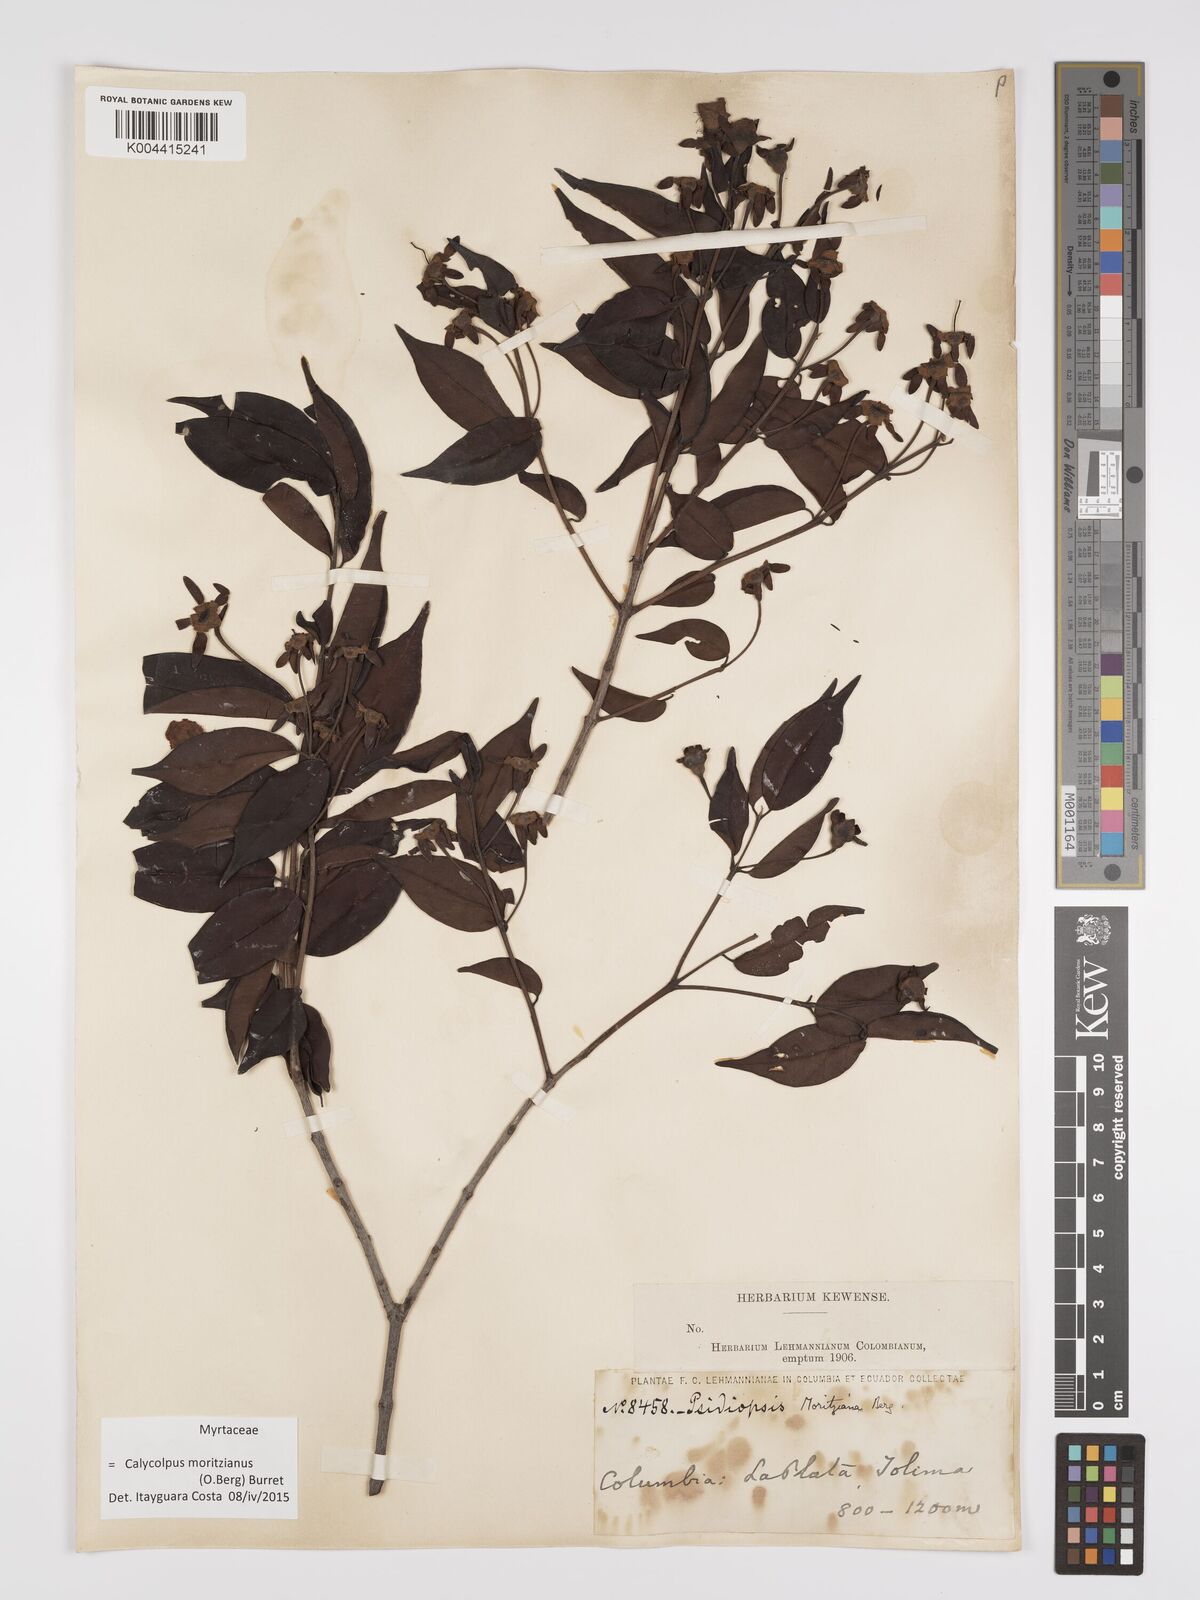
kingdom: Plantae
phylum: Tracheophyta
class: Magnoliopsida
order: Myrtales
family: Myrtaceae
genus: Calycolpus
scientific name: Calycolpus moritzianus
